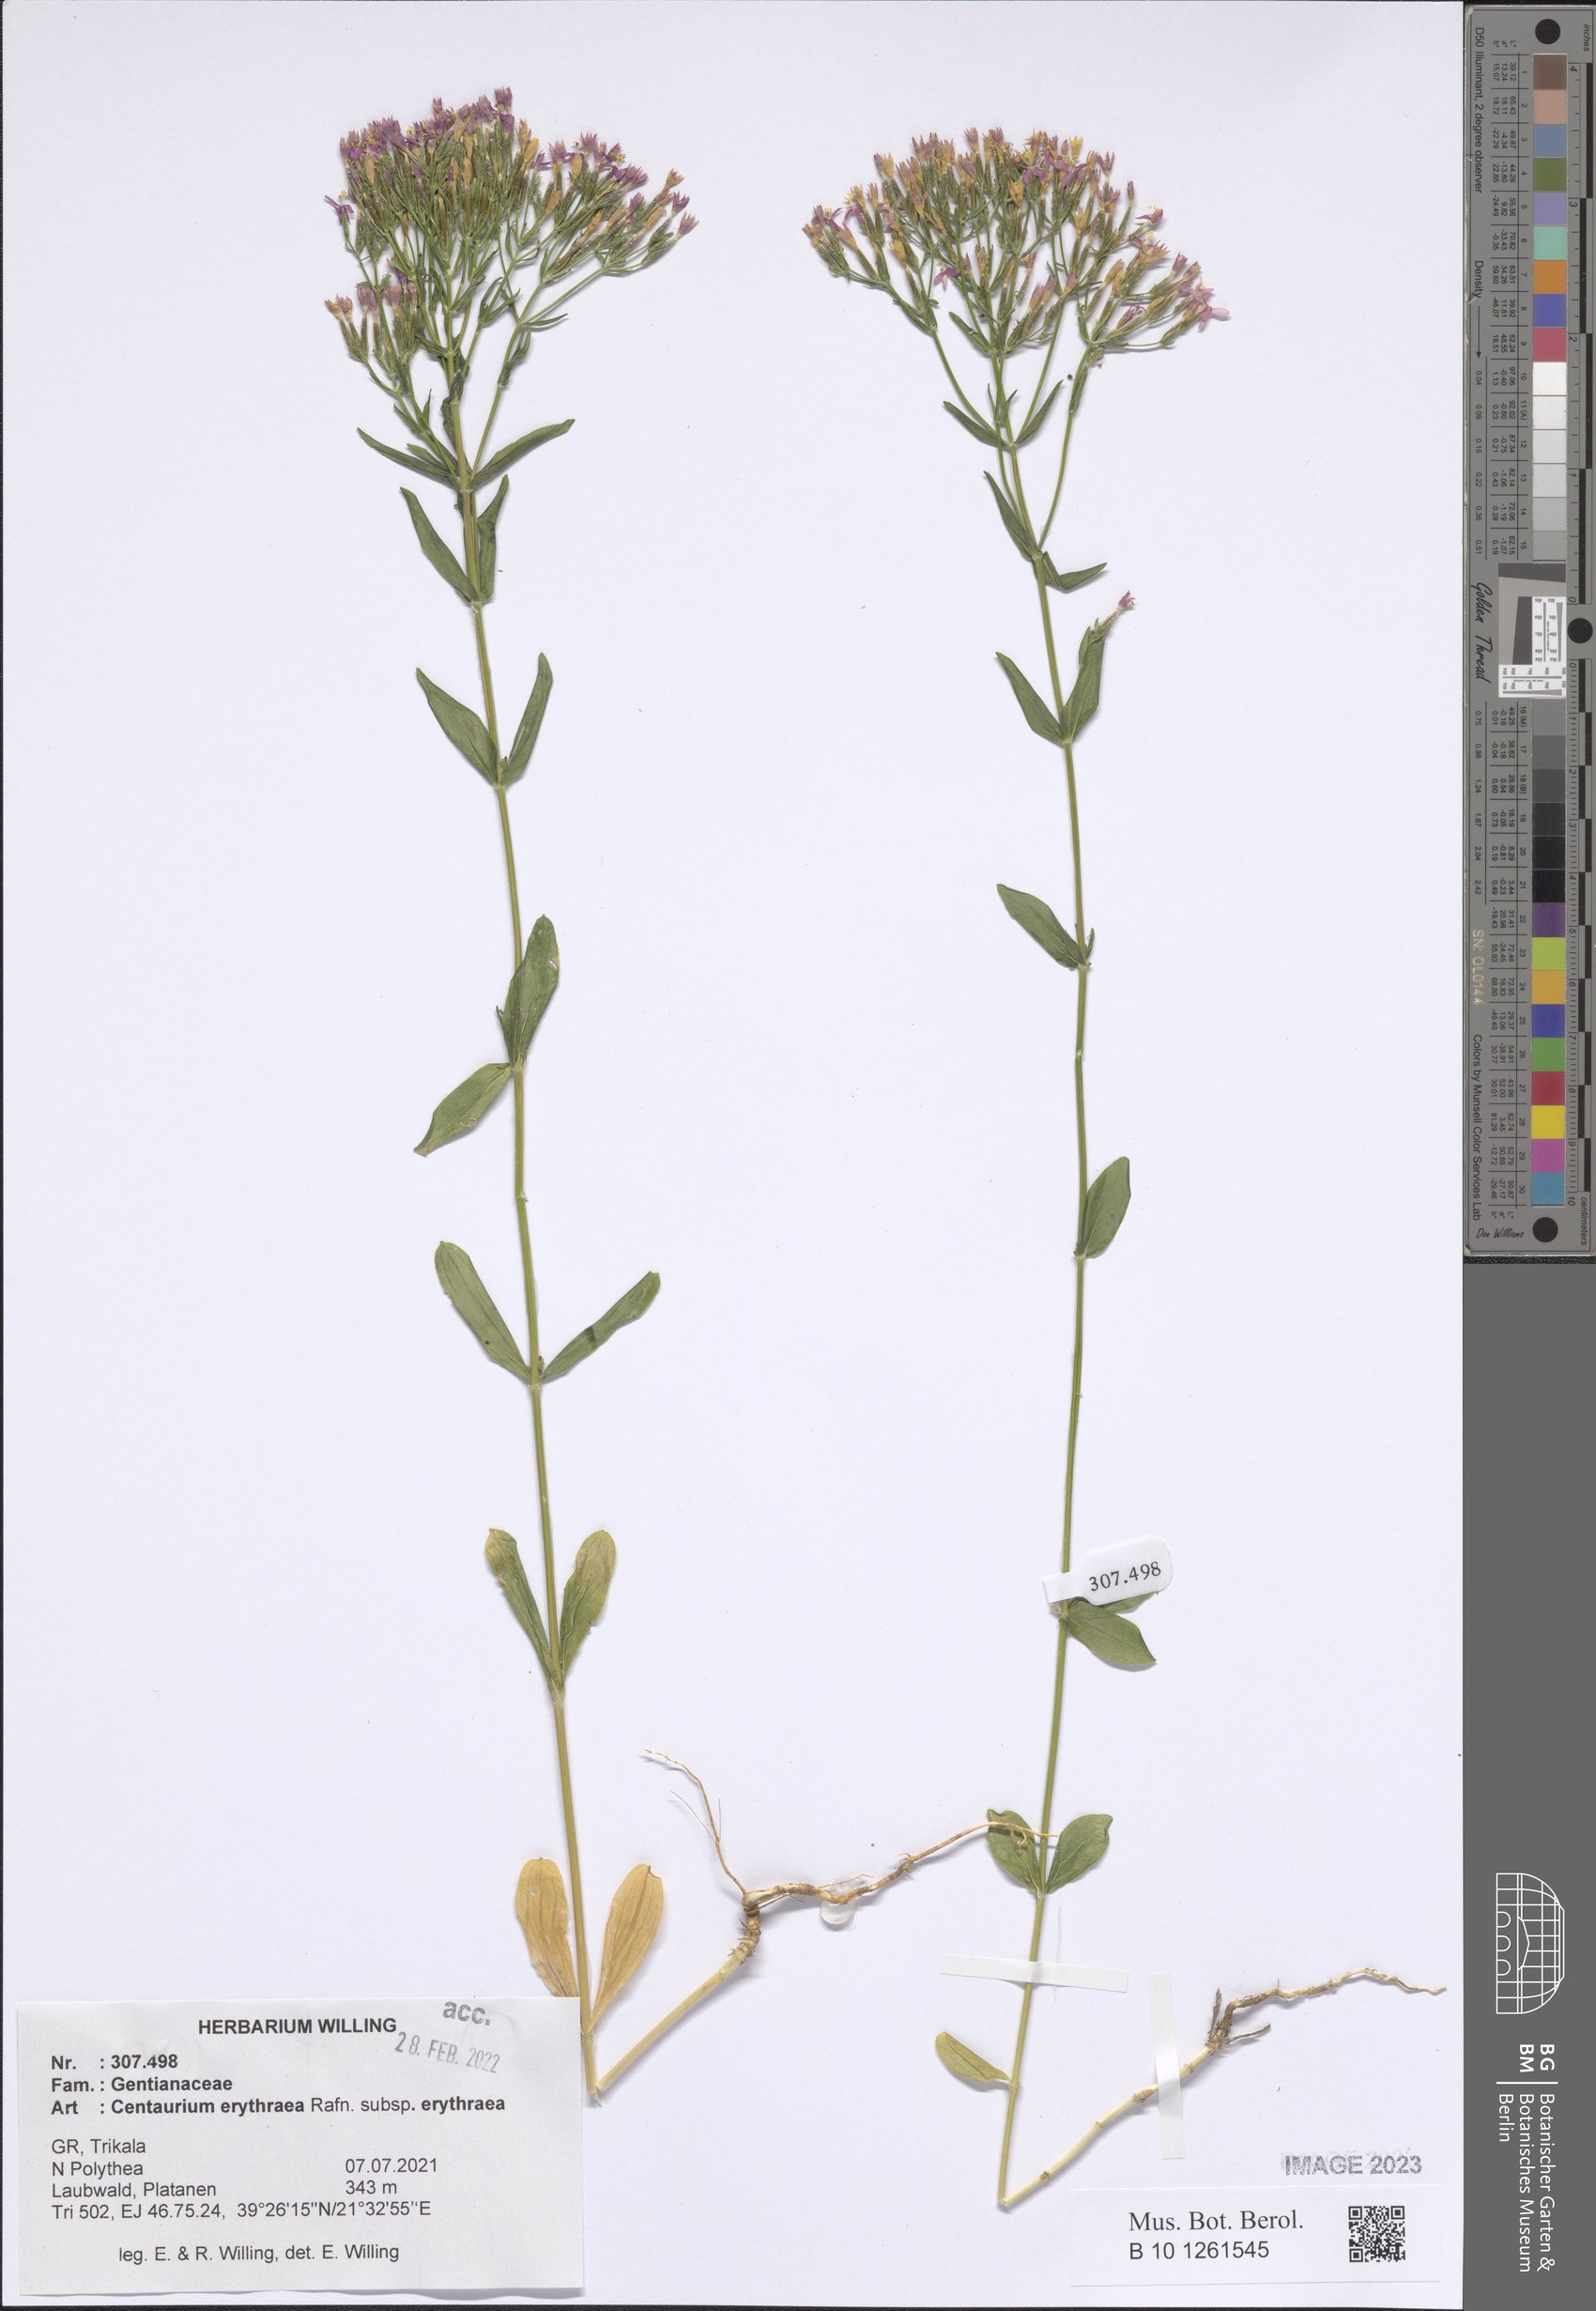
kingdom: Plantae
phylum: Tracheophyta
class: Magnoliopsida
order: Gentianales
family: Gentianaceae
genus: Centaurium
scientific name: Centaurium erythraea
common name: Common centaury
